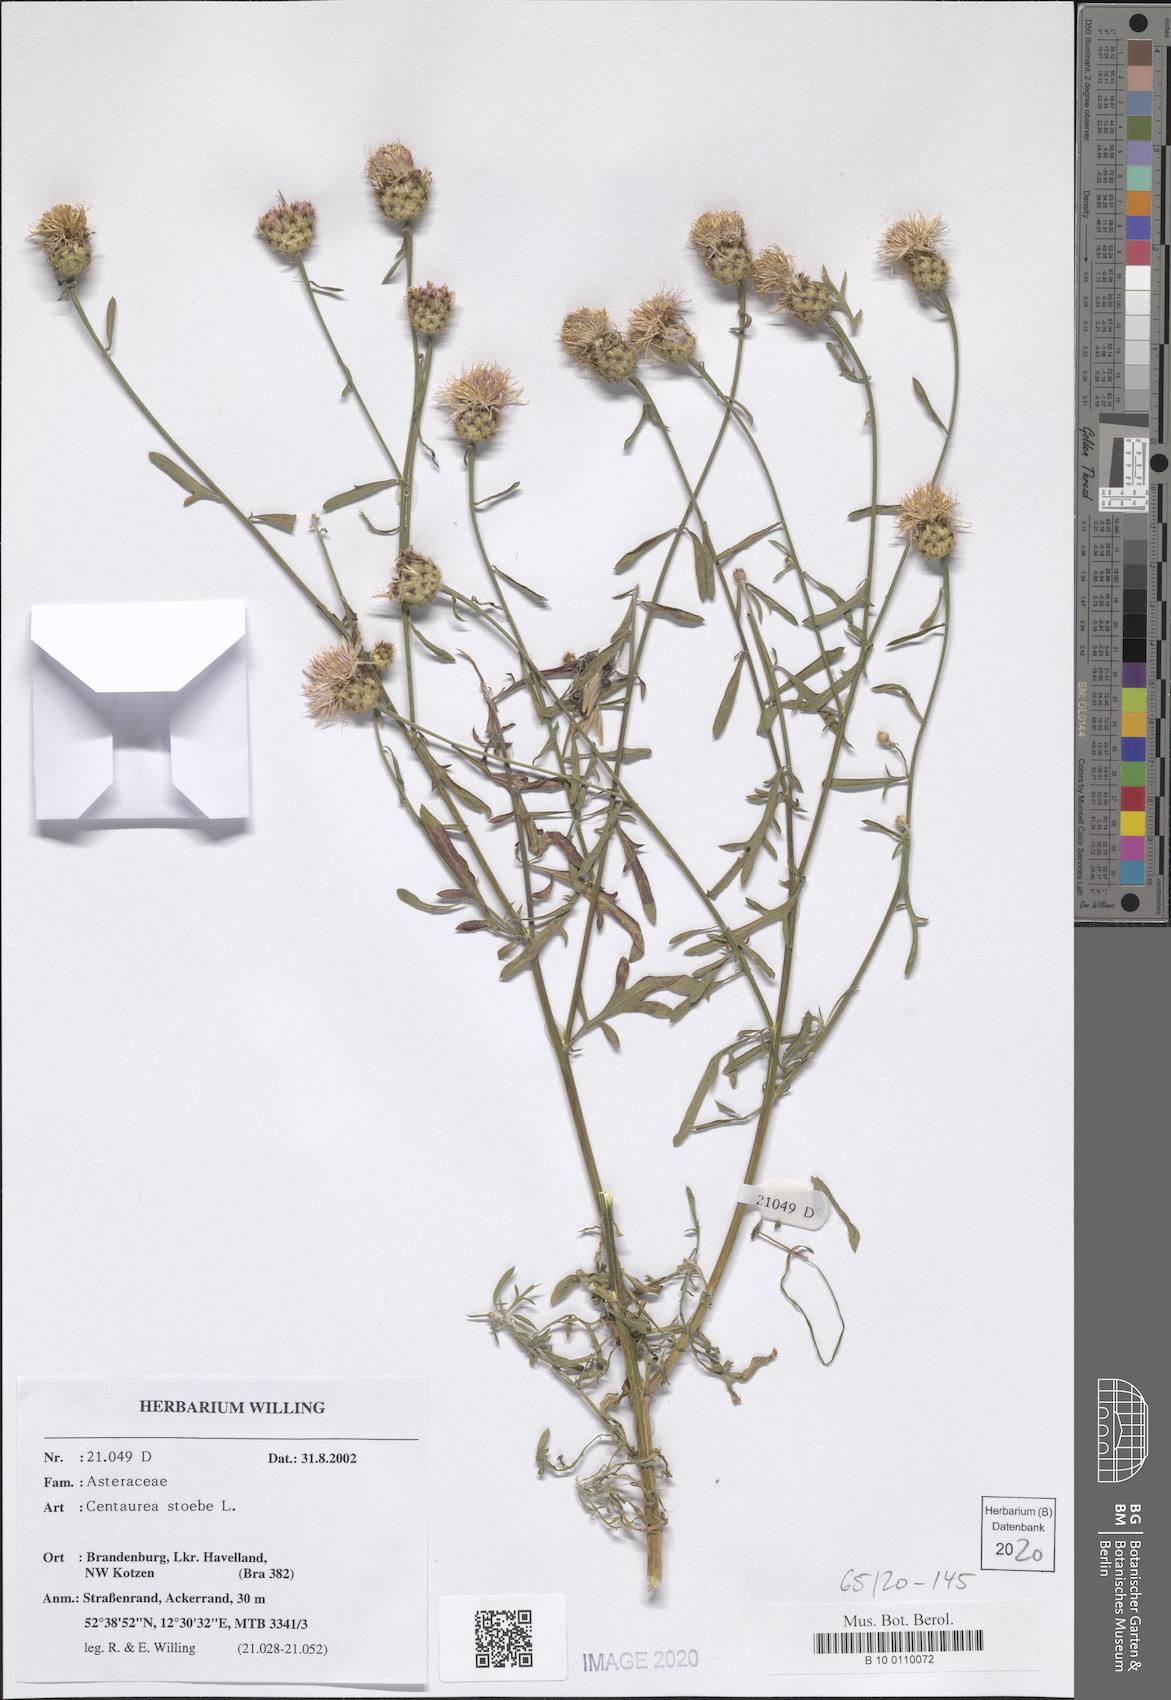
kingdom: Plantae
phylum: Tracheophyta
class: Magnoliopsida
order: Asterales
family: Asteraceae
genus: Centaurea
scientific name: Centaurea stoebe
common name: Spotted knapweed
